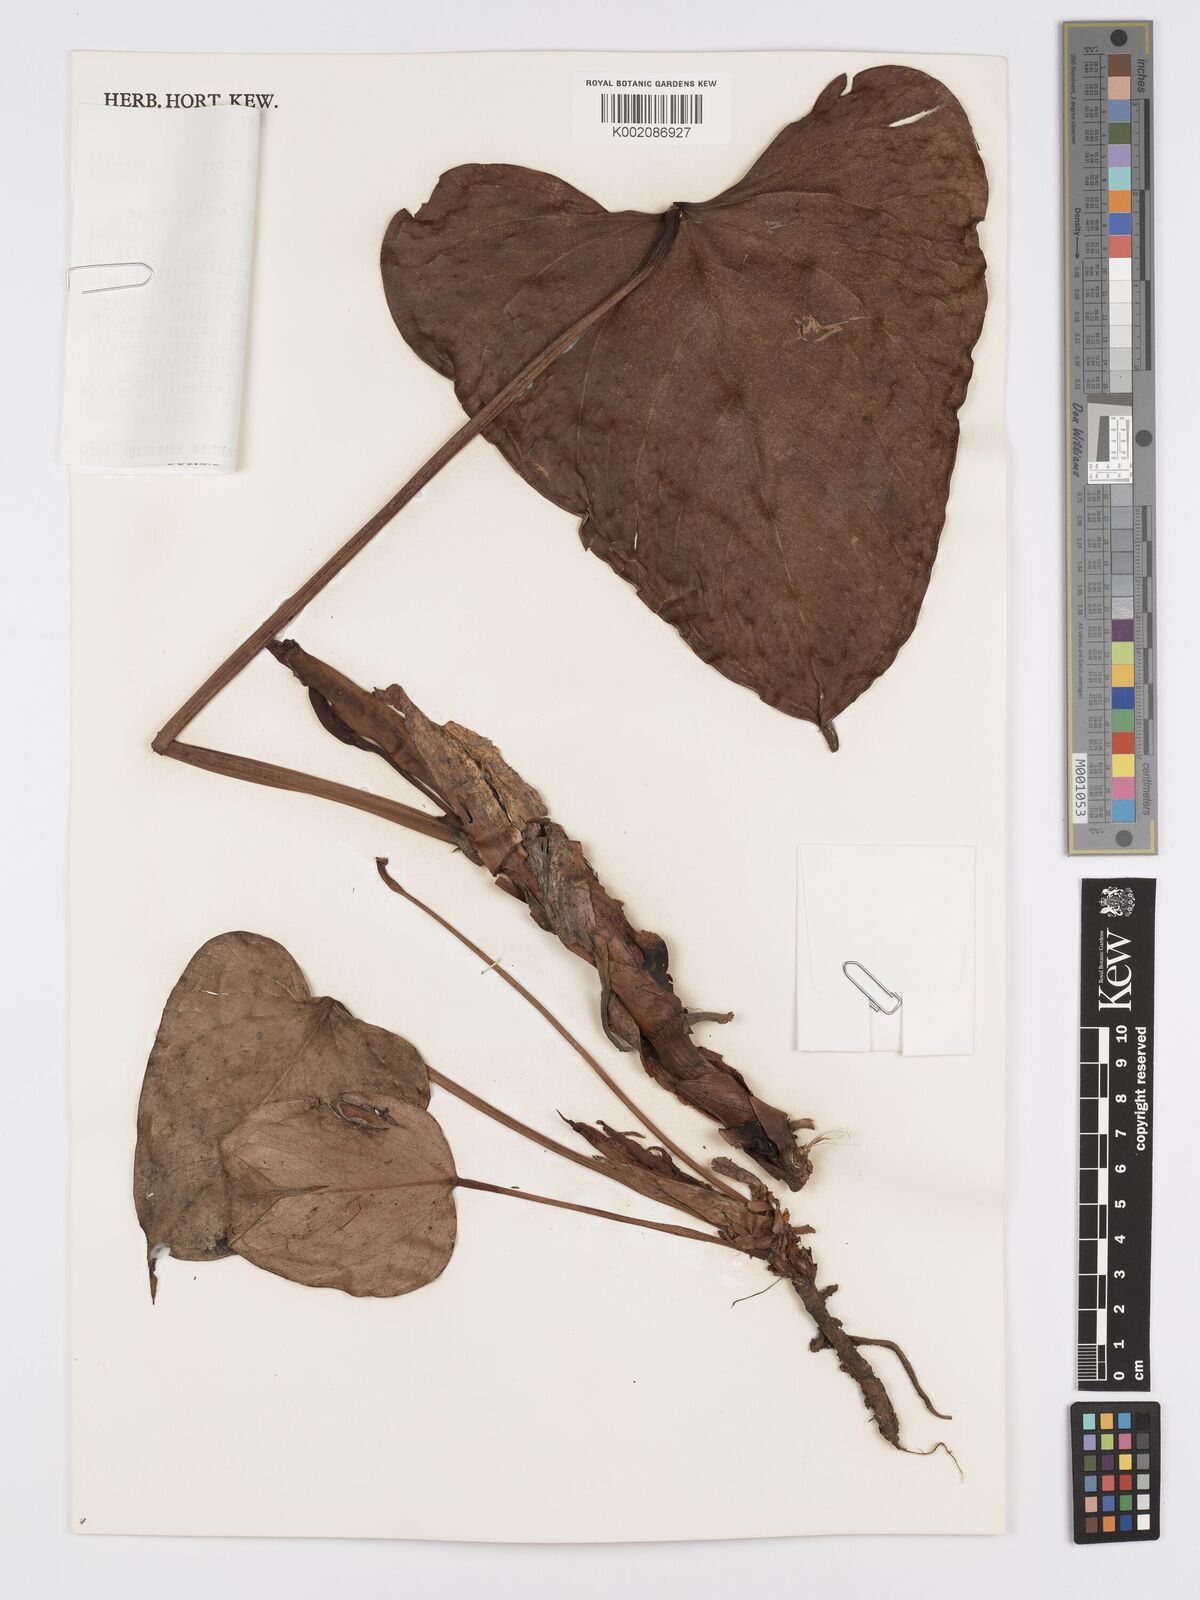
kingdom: Plantae
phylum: Tracheophyta
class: Liliopsida
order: Alismatales
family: Araceae
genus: Anthurium
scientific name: Anthurium roseospadix
